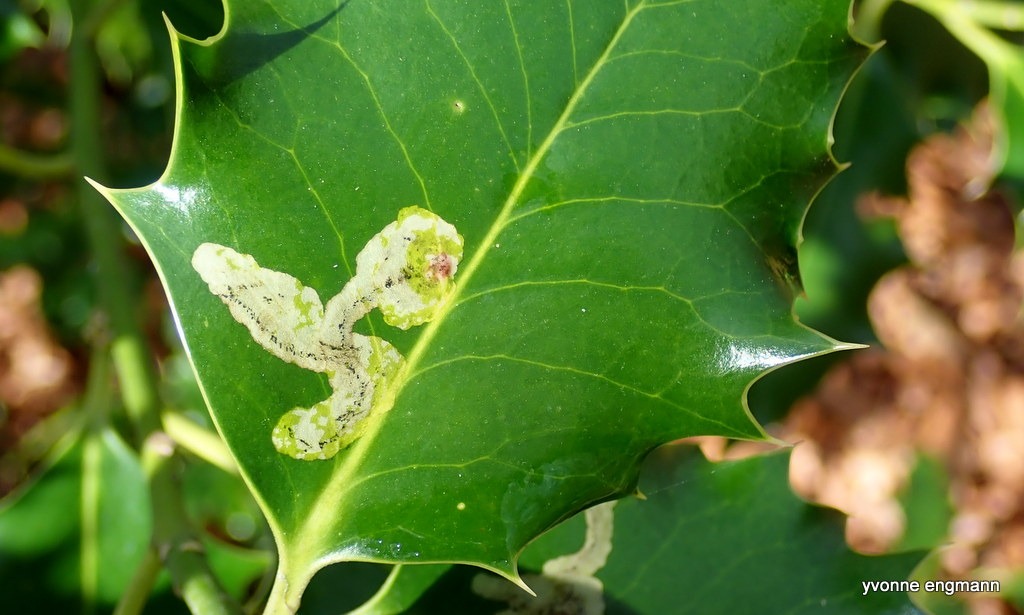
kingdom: Animalia
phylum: Arthropoda
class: Insecta
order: Diptera
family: Agromyzidae
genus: Phytomyza
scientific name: Phytomyza ilicis
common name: Kristtornminérflue
